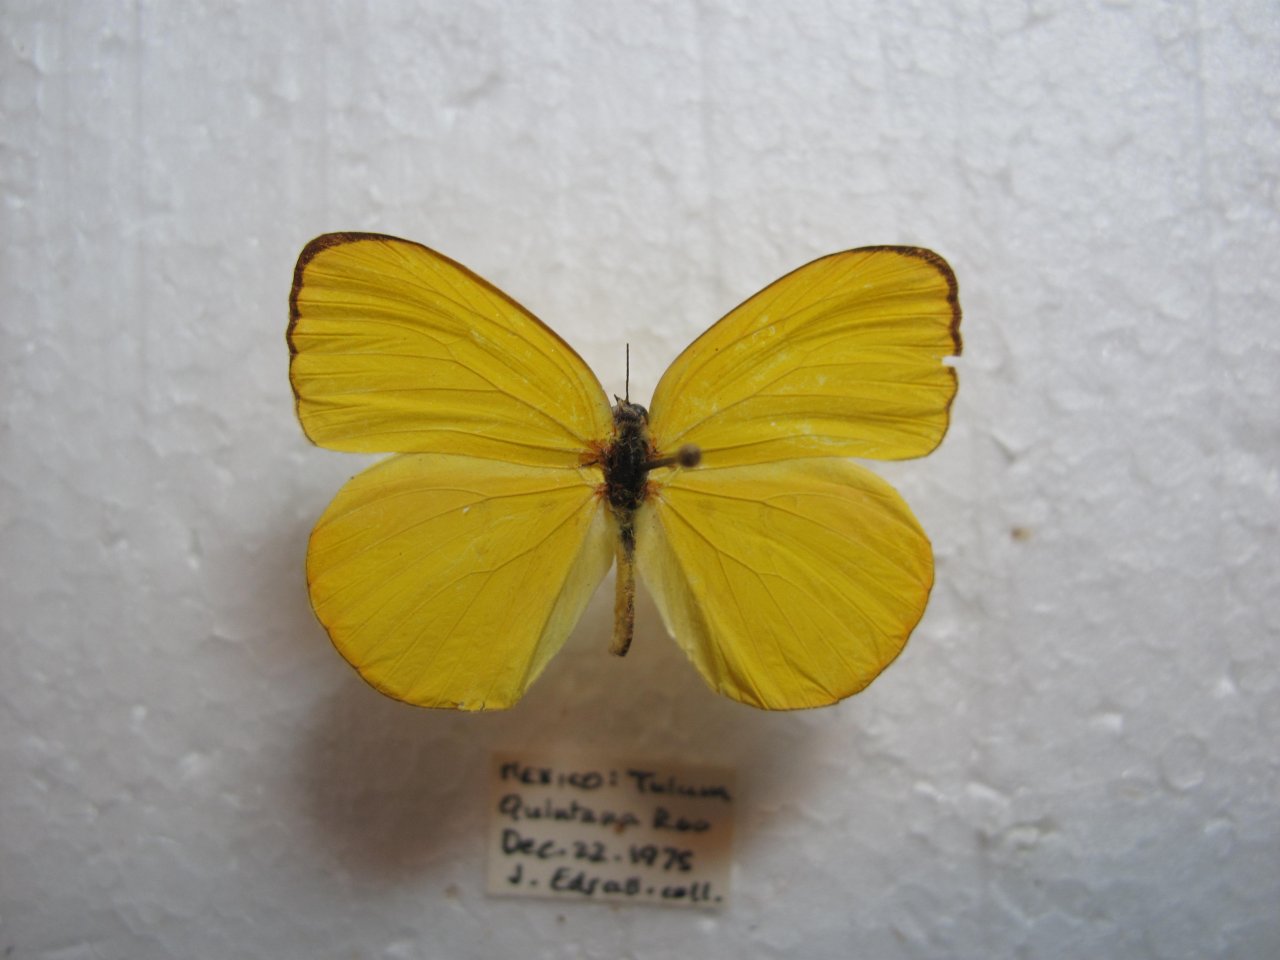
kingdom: Animalia
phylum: Arthropoda
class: Insecta
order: Lepidoptera
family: Pieridae
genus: Pyrisitia
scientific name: Pyrisitia dina
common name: Dina Yellow
